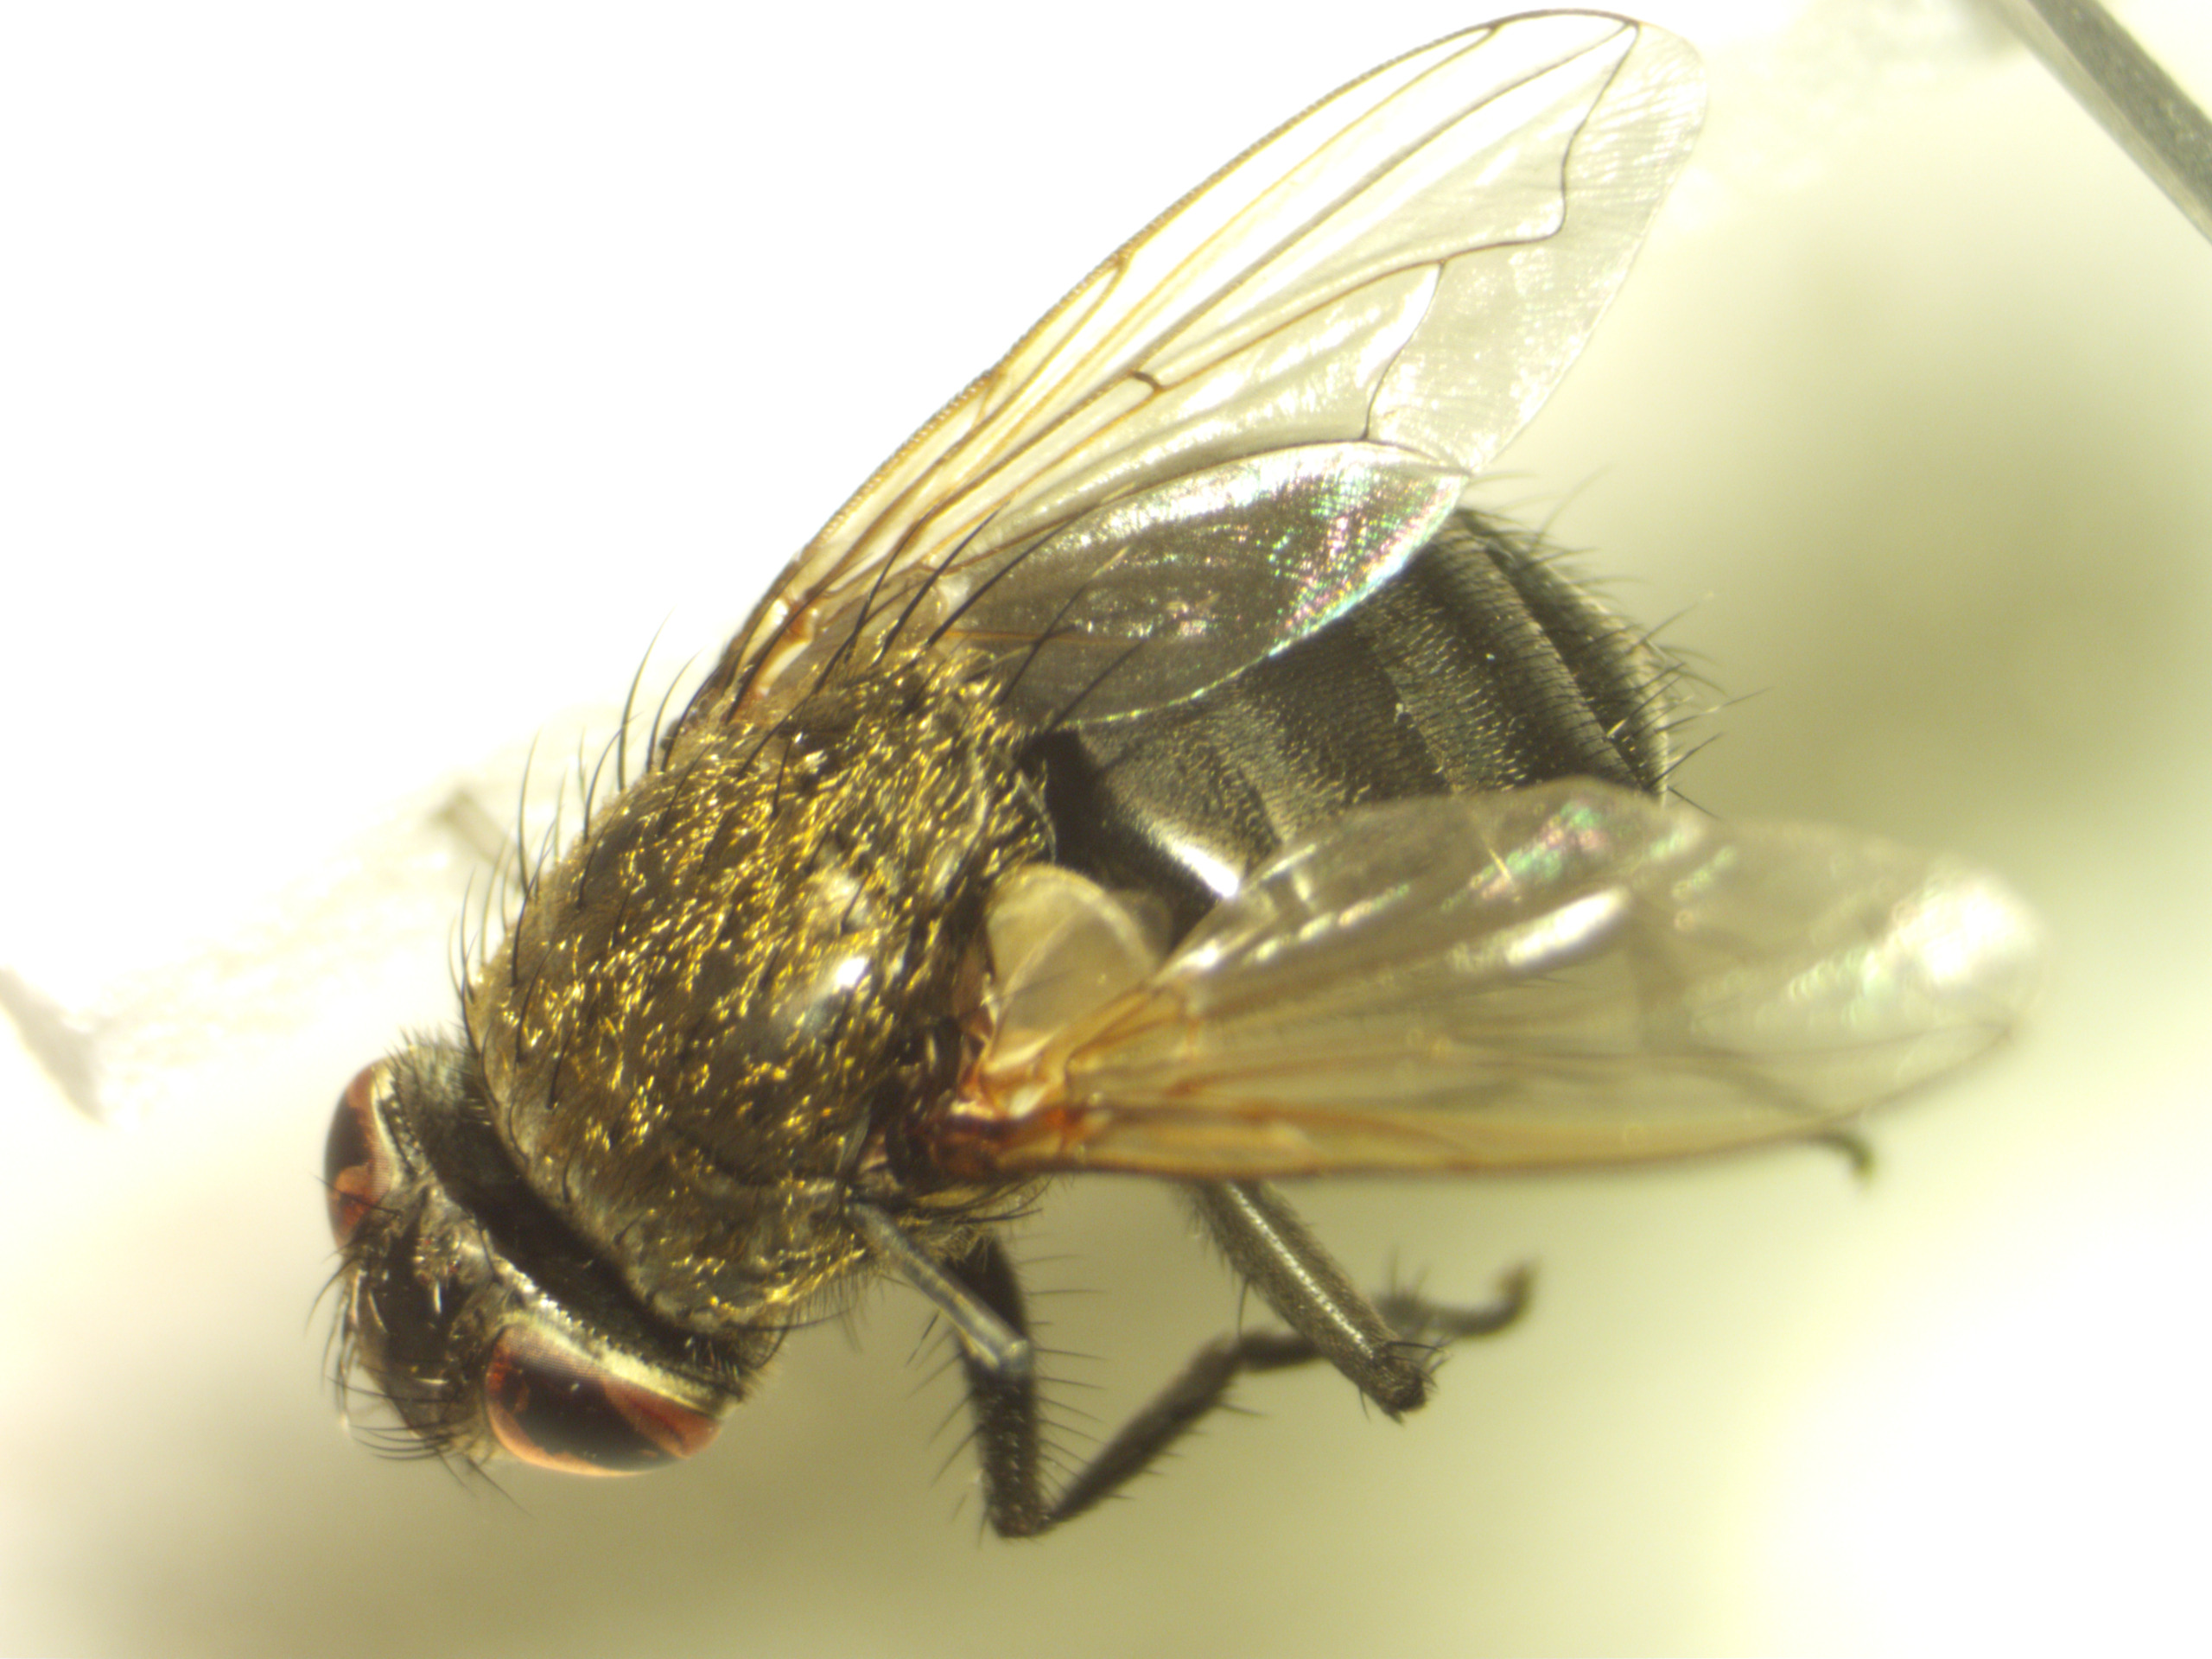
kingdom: Animalia
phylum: Arthropoda
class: Insecta
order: Diptera
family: Polleniidae
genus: Pollenia
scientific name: Pollenia amentaria
